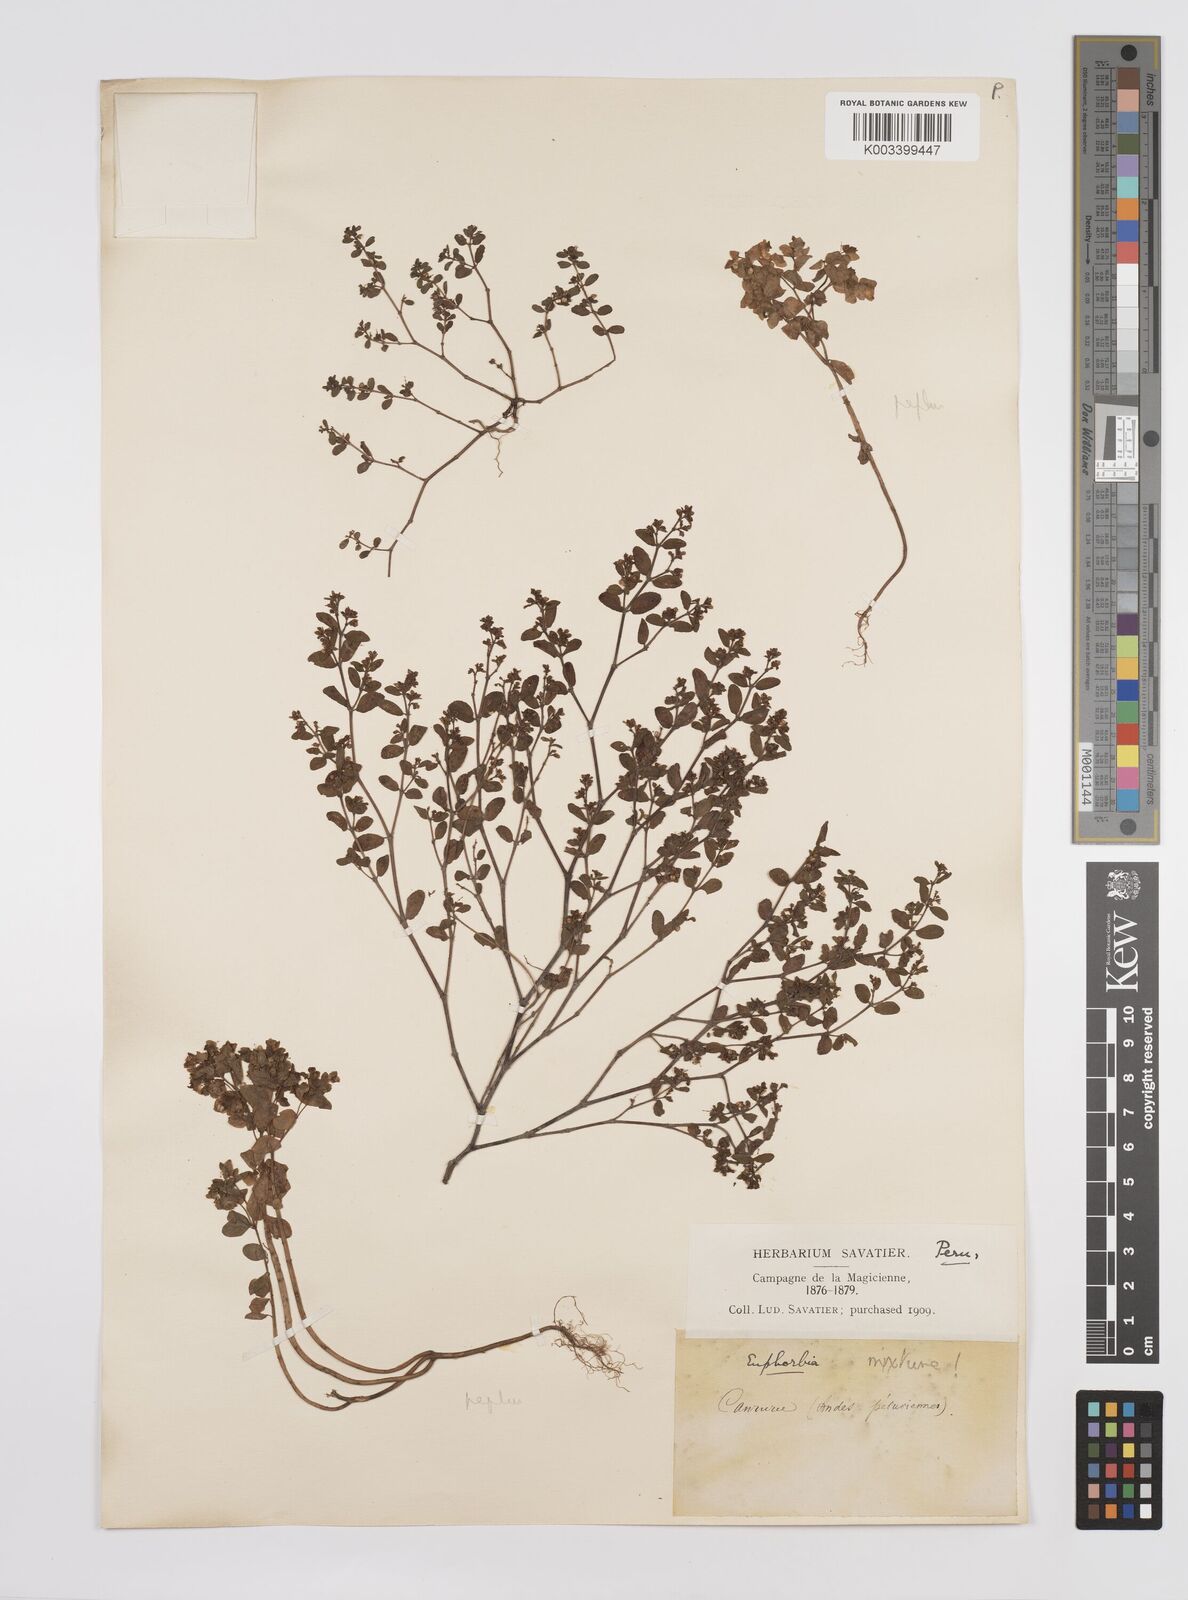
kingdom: Plantae
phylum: Tracheophyta
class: Magnoliopsida
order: Malpighiales
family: Euphorbiaceae
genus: Euphorbia
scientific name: Euphorbia
